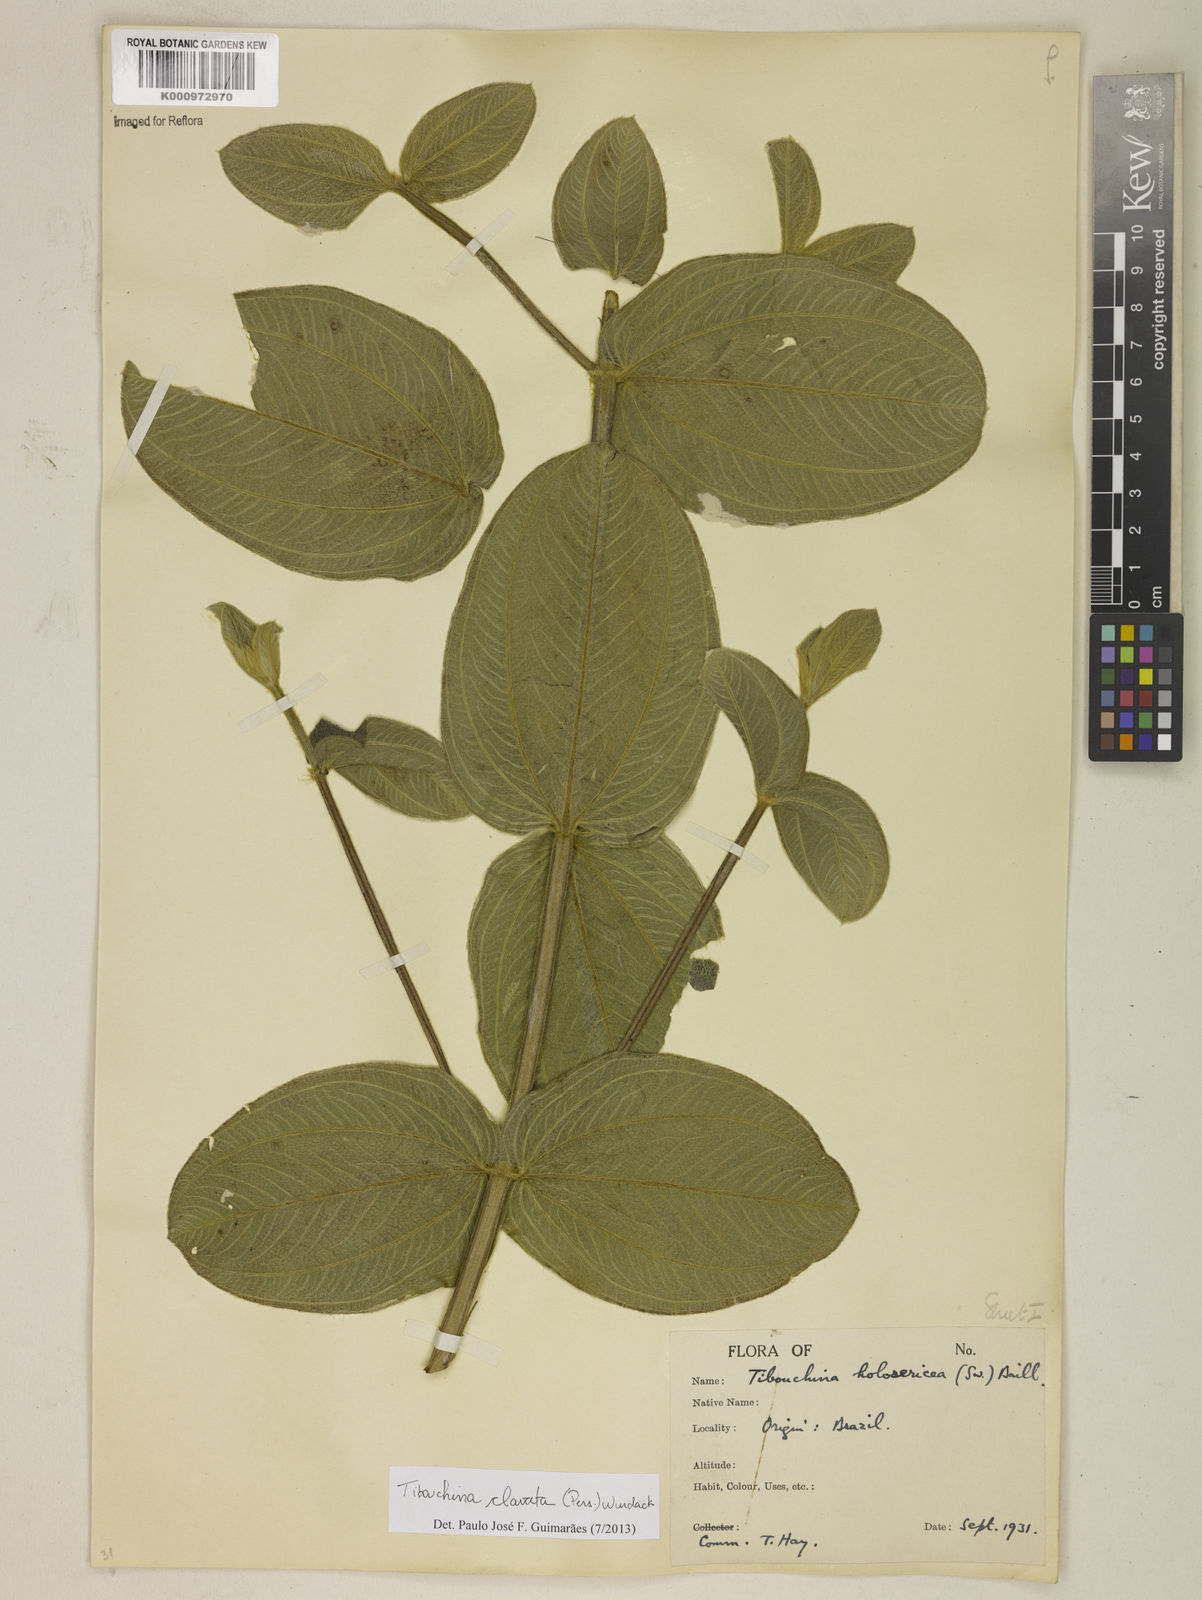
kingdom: Plantae
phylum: Tracheophyta
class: Magnoliopsida
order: Myrtales
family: Melastomataceae
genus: Pleroma
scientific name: Pleroma clavatum
